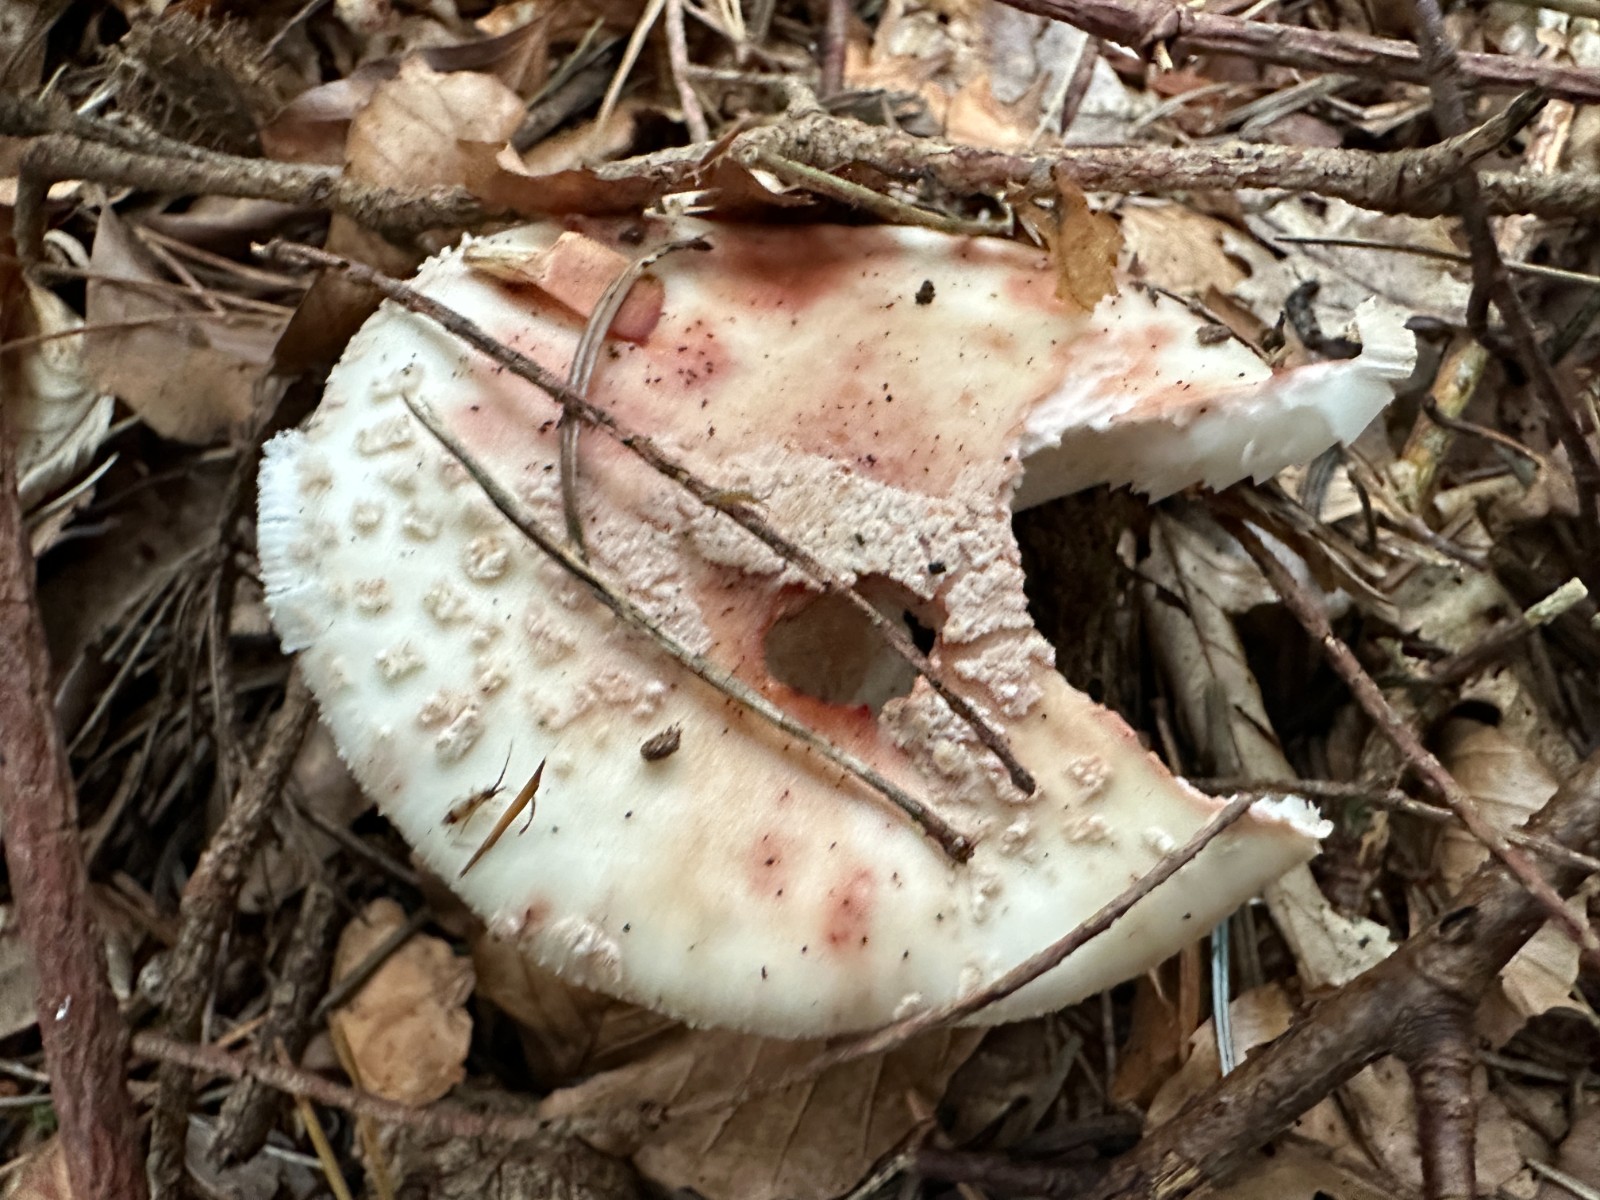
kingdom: Fungi
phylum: Basidiomycota
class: Agaricomycetes
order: Agaricales
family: Amanitaceae
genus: Amanita
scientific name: Amanita rubescens
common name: rødmende fluesvamp
